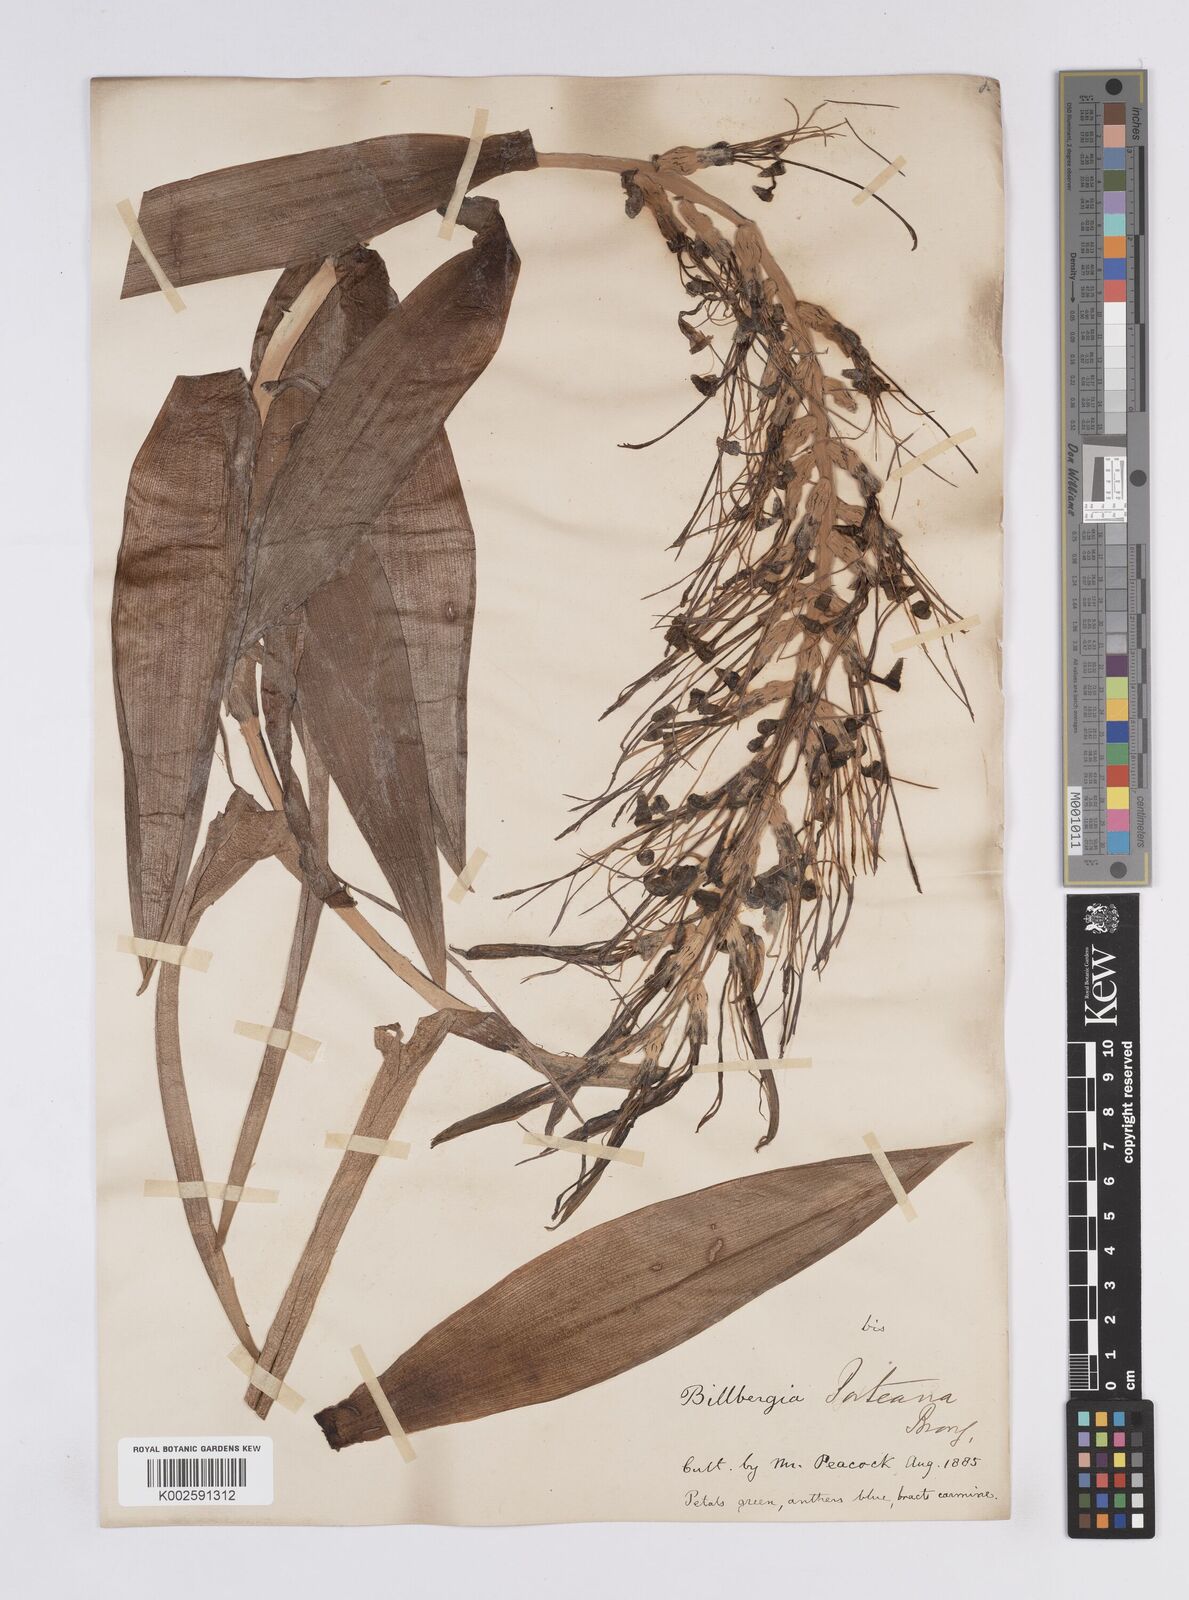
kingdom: Plantae
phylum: Tracheophyta
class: Liliopsida
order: Poales
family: Bromeliaceae
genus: Billbergia
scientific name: Billbergia porteana
